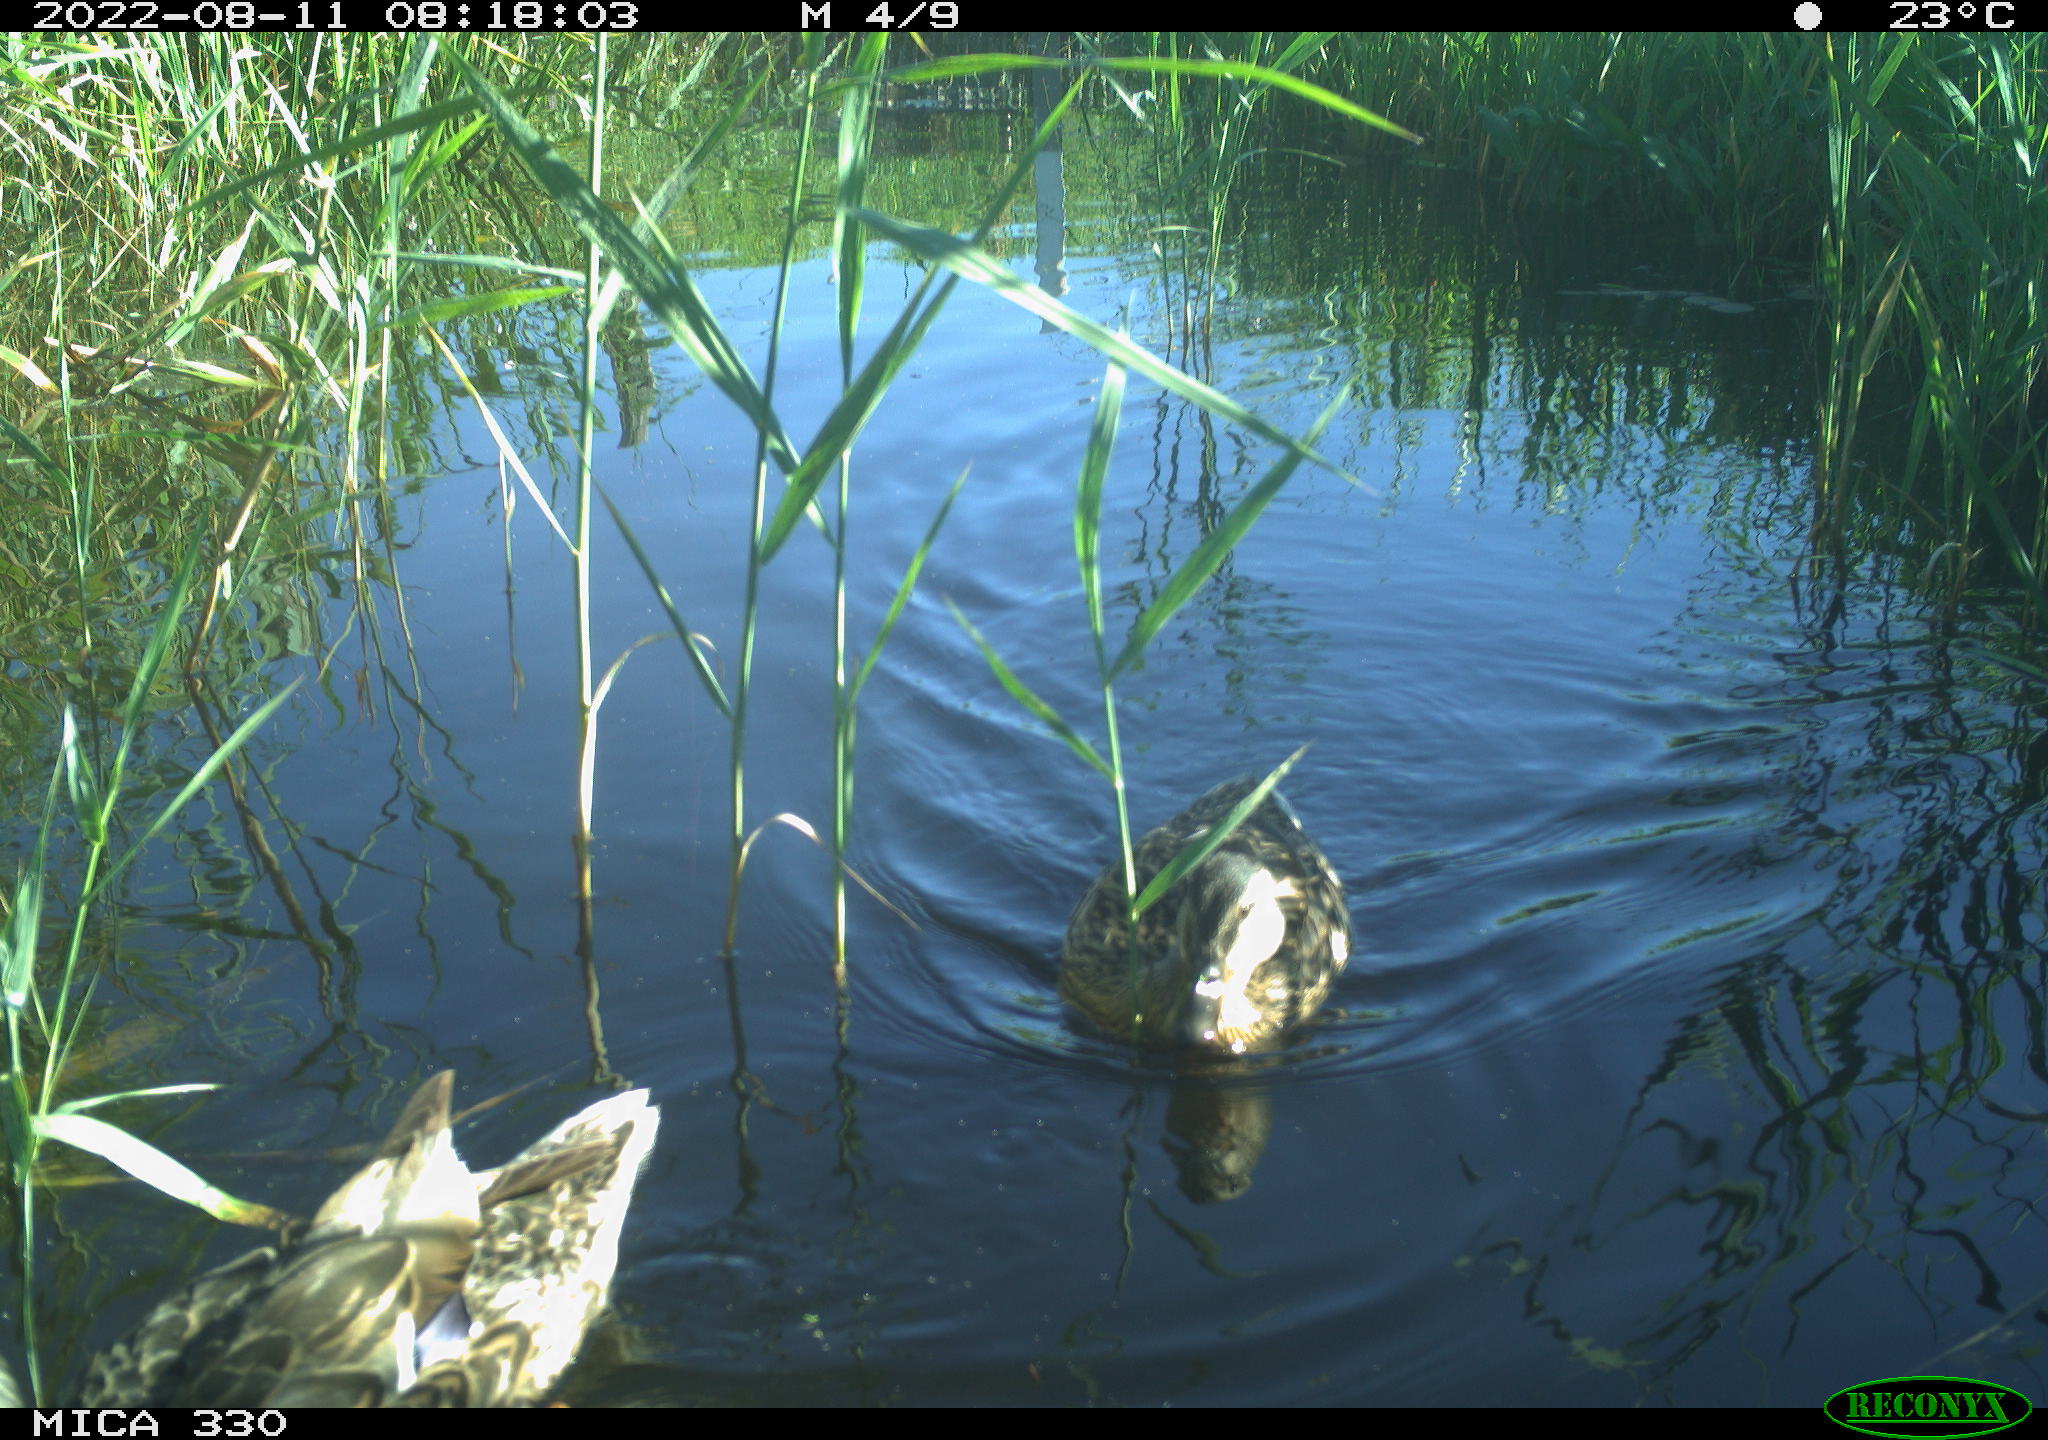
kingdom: Animalia
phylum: Chordata
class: Aves
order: Gruiformes
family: Rallidae
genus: Gallinula
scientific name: Gallinula chloropus
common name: Common moorhen
